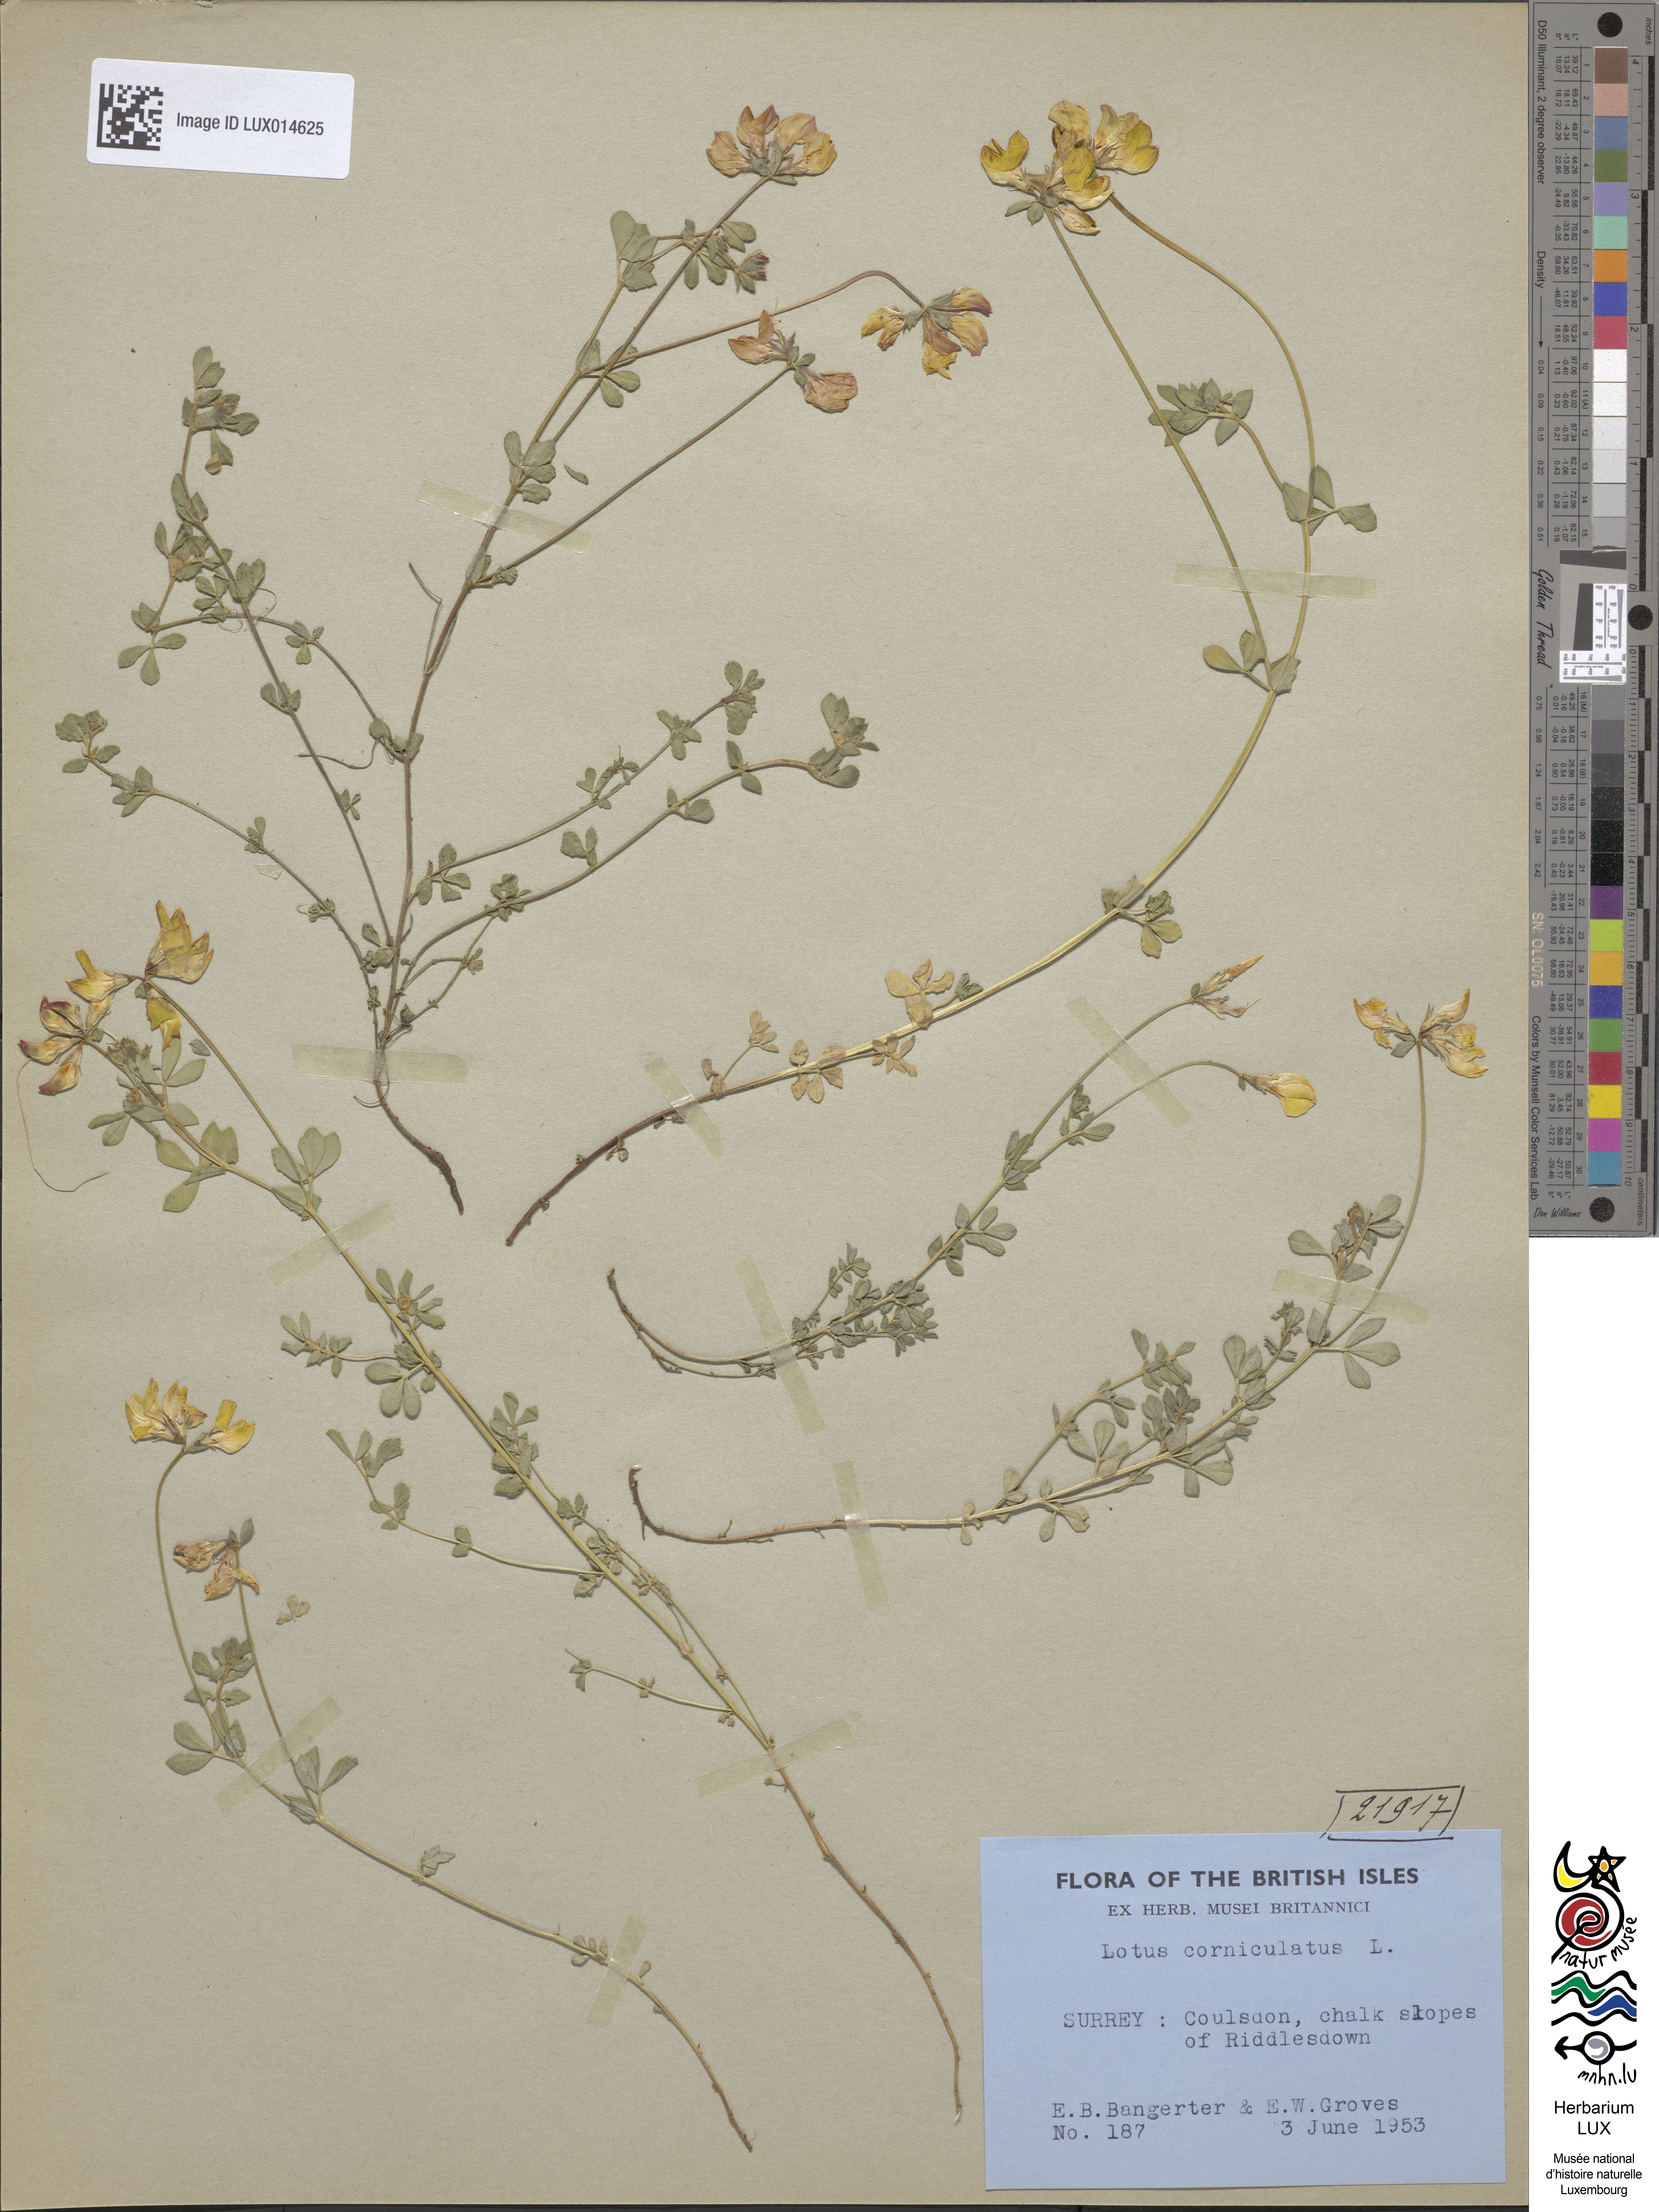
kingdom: Plantae
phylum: Tracheophyta
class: Magnoliopsida
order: Fabales
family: Fabaceae
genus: Lotus
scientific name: Lotus corniculatus
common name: Common bird's-foot-trefoil
